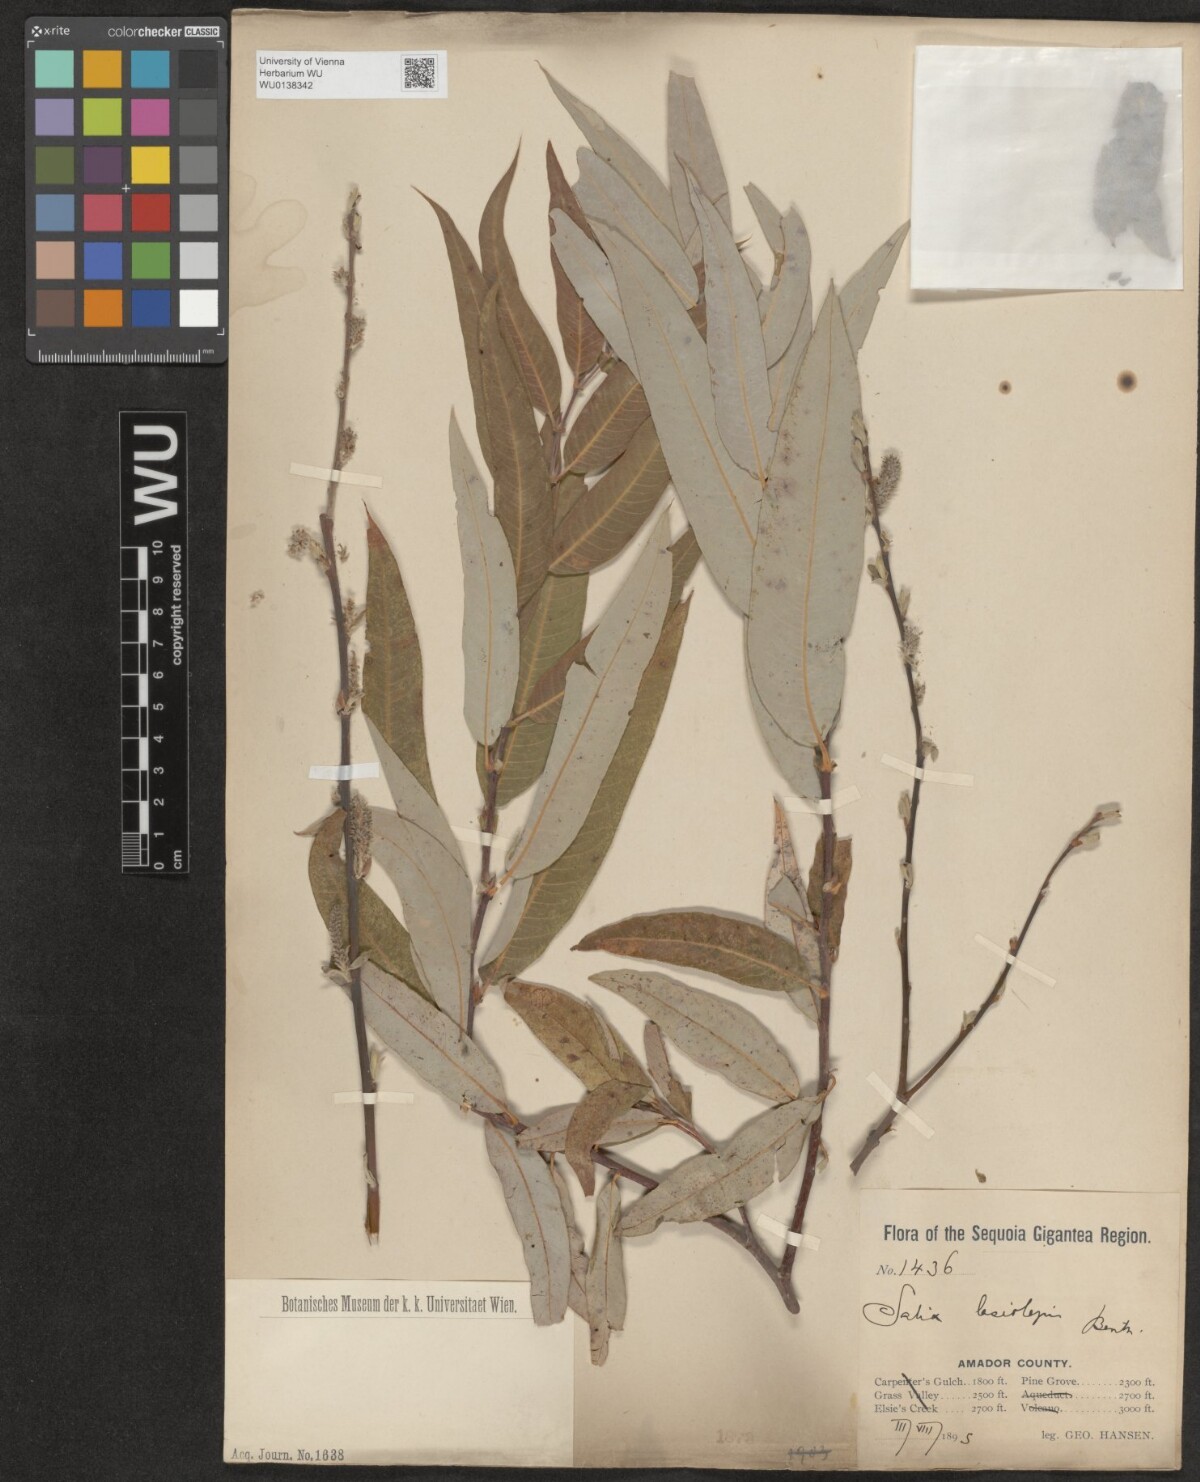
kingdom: Plantae
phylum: Tracheophyta
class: Magnoliopsida
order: Malpighiales
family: Salicaceae
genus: Salix
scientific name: Salix lasiolepis
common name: Arroyo willow
